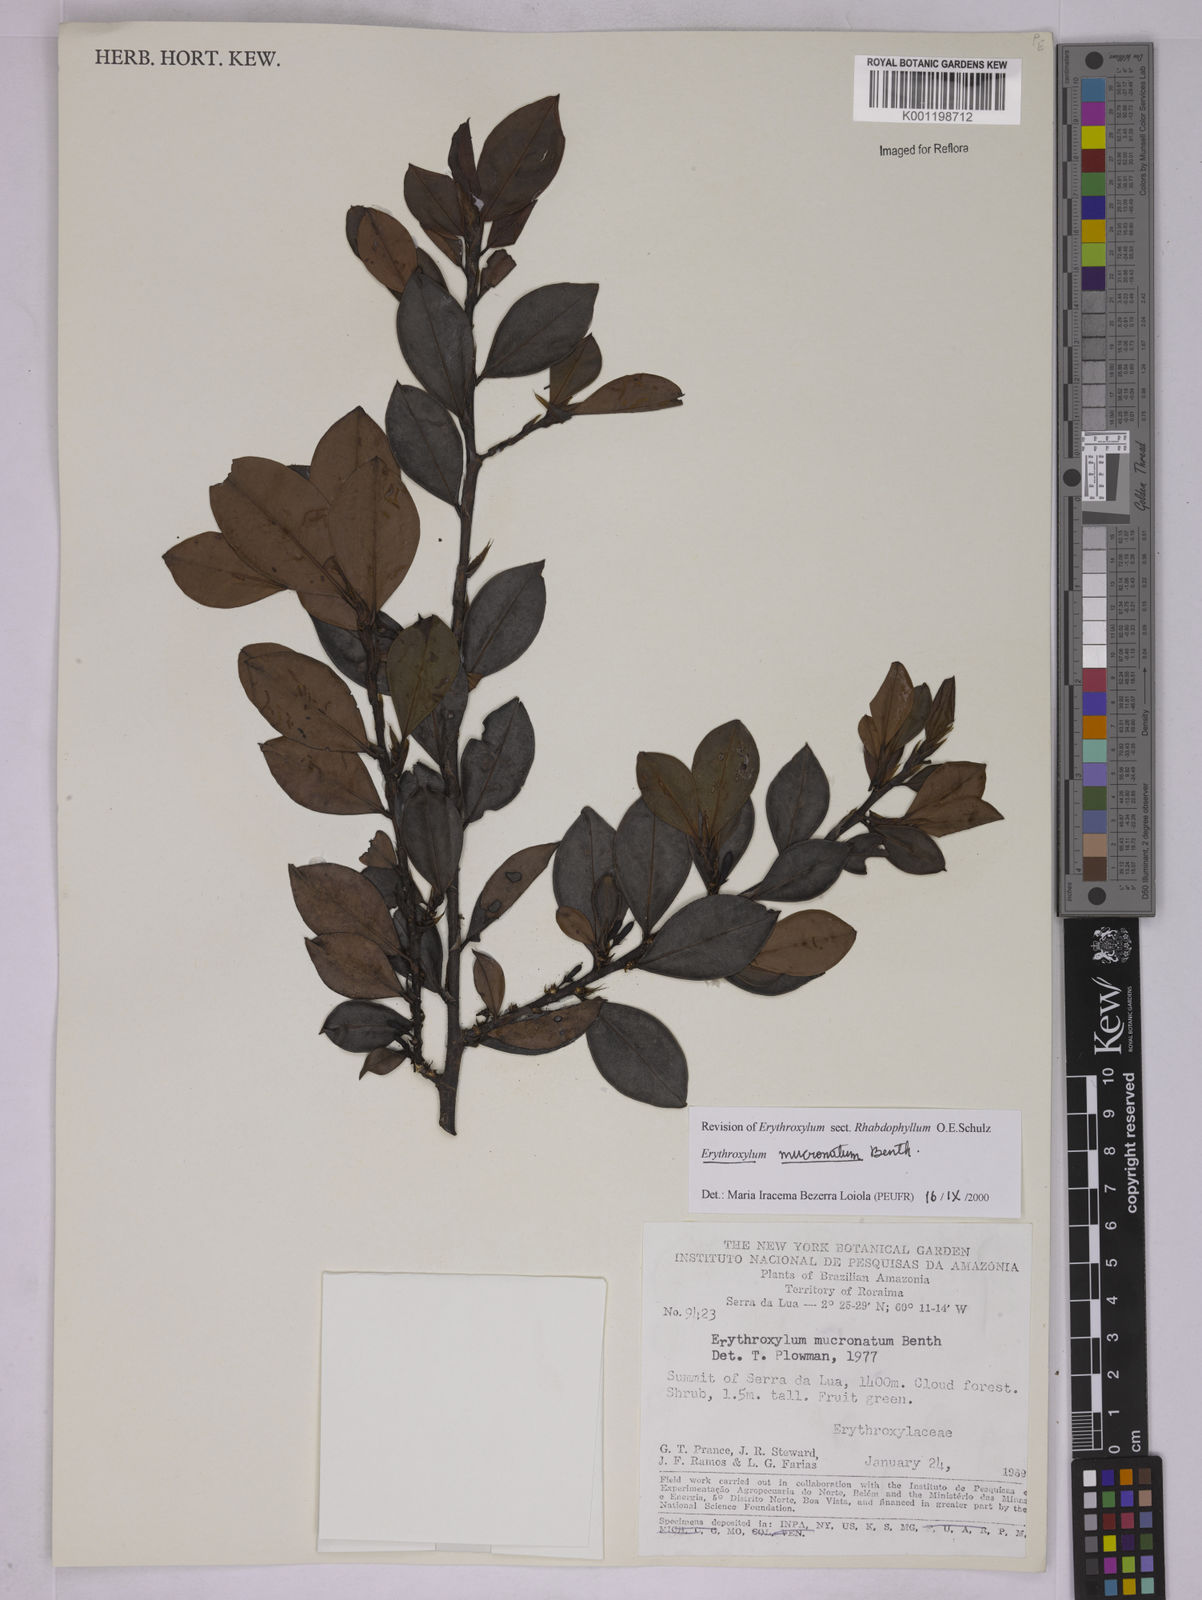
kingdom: Plantae
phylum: Tracheophyta
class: Magnoliopsida
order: Malpighiales
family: Erythroxylaceae
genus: Erythroxylum
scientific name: Erythroxylum mucronatum
